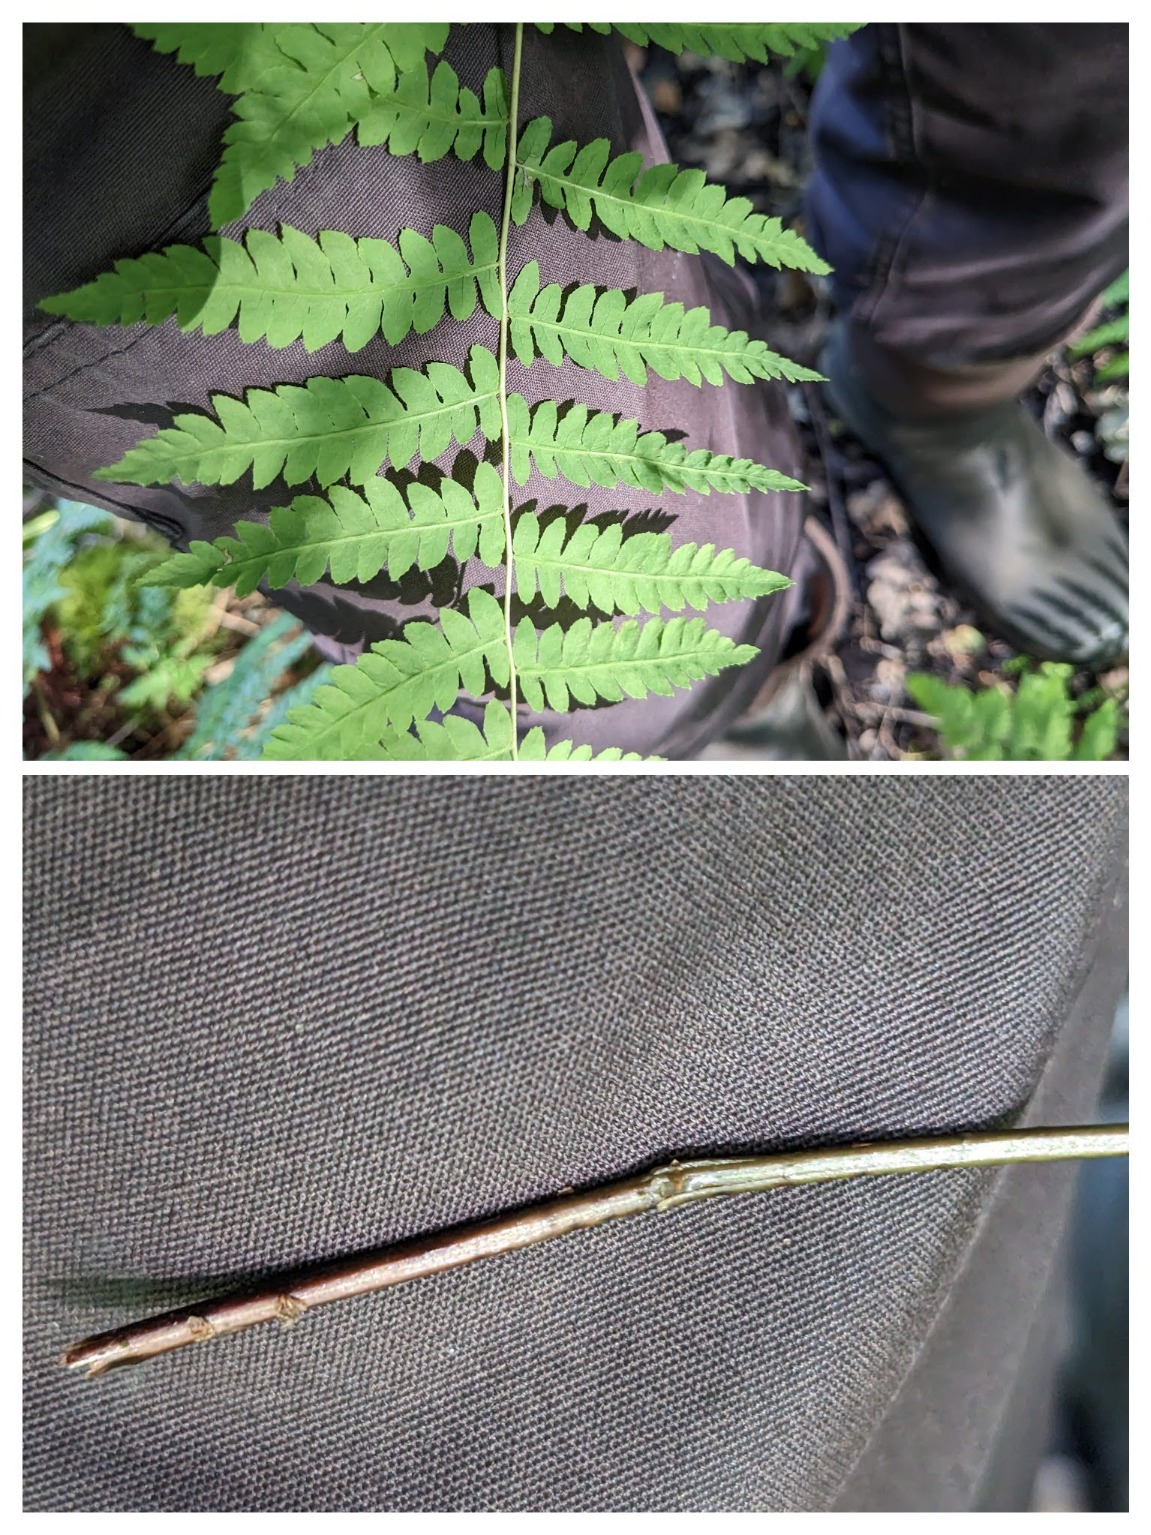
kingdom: Plantae
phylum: Tracheophyta
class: Polypodiopsida
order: Polypodiales
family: Thelypteridaceae
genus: Thelypteris
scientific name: Thelypteris palustris
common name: Kærmangeløv
